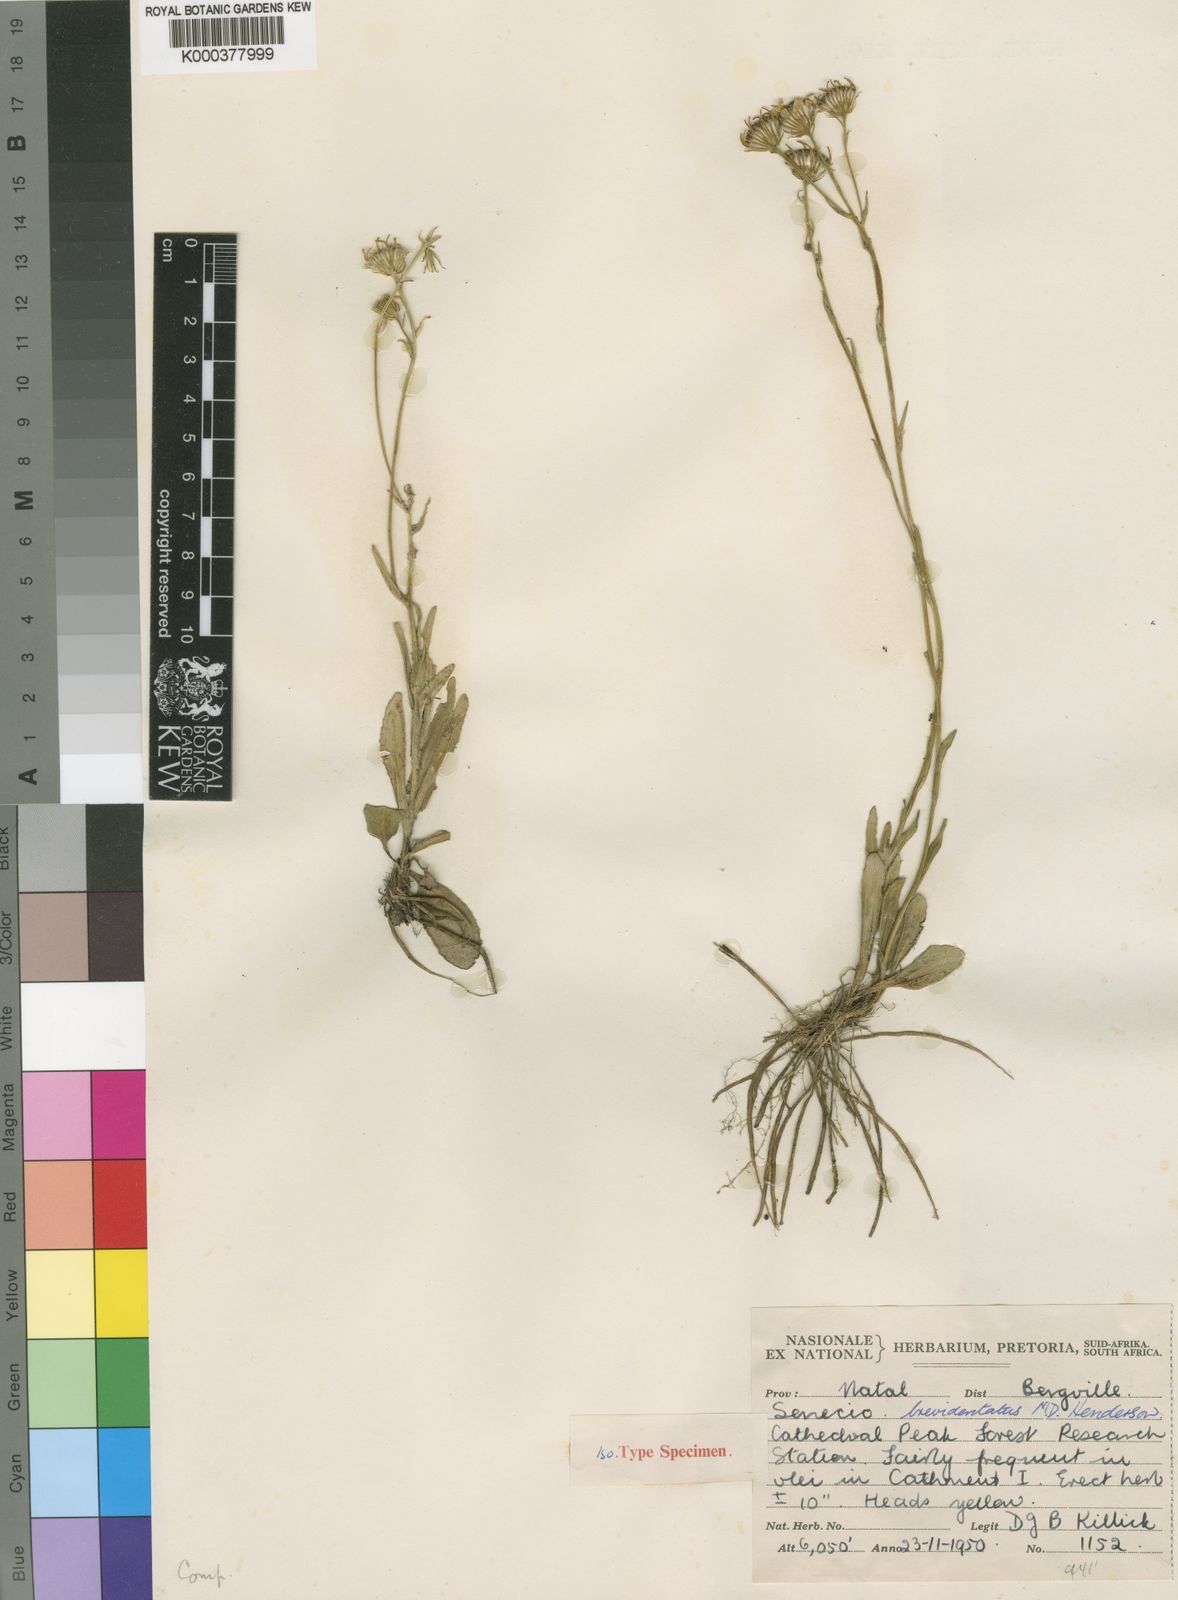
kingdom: Plantae
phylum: Tracheophyta
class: Magnoliopsida
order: Asterales
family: Asteraceae
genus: Senecio
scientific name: Senecio brevidentatus
